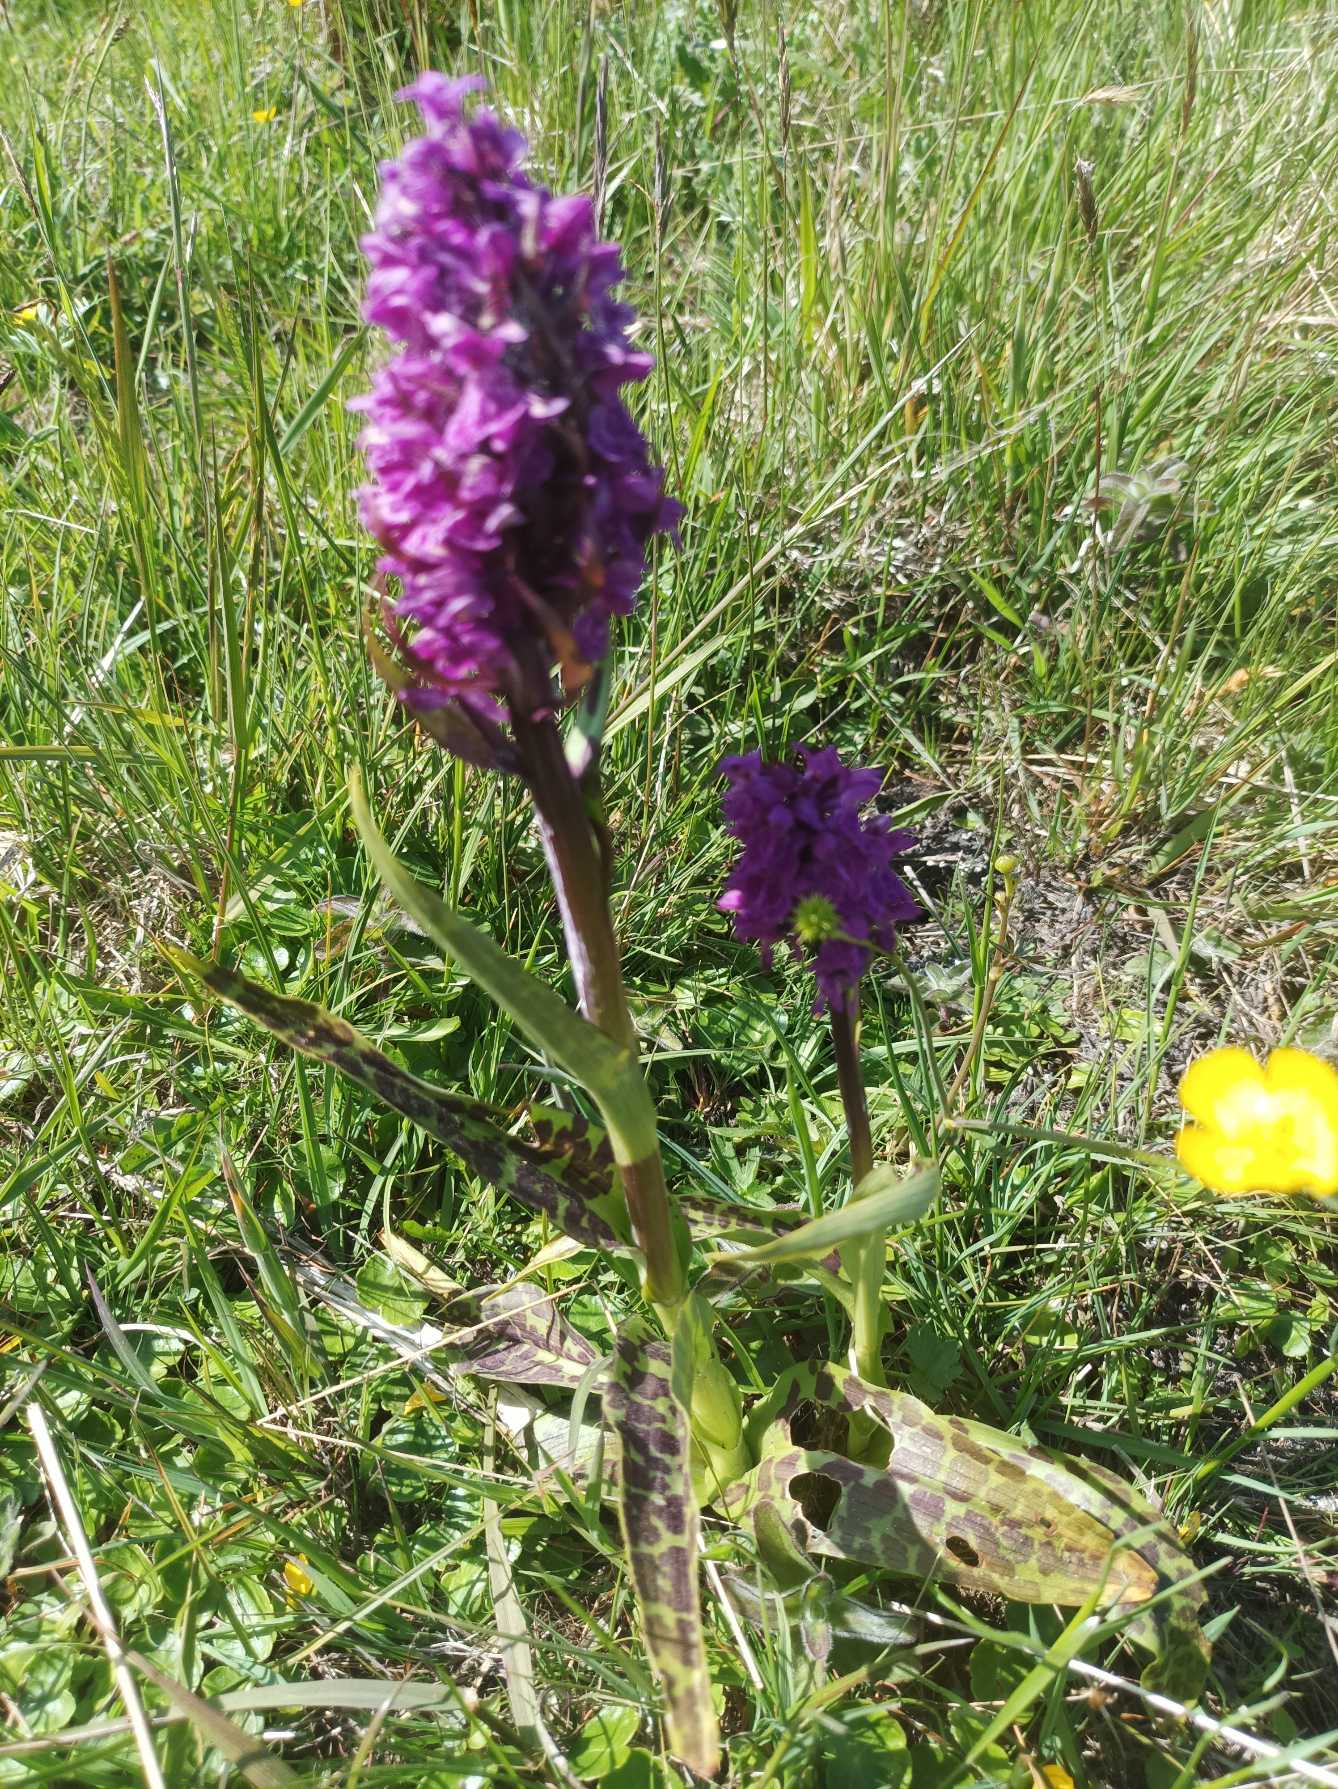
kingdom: Plantae
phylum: Tracheophyta
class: Liliopsida
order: Asparagales
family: Orchidaceae
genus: Dactylorhiza
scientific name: Dactylorhiza majalis
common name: Maj-gøgeurt
